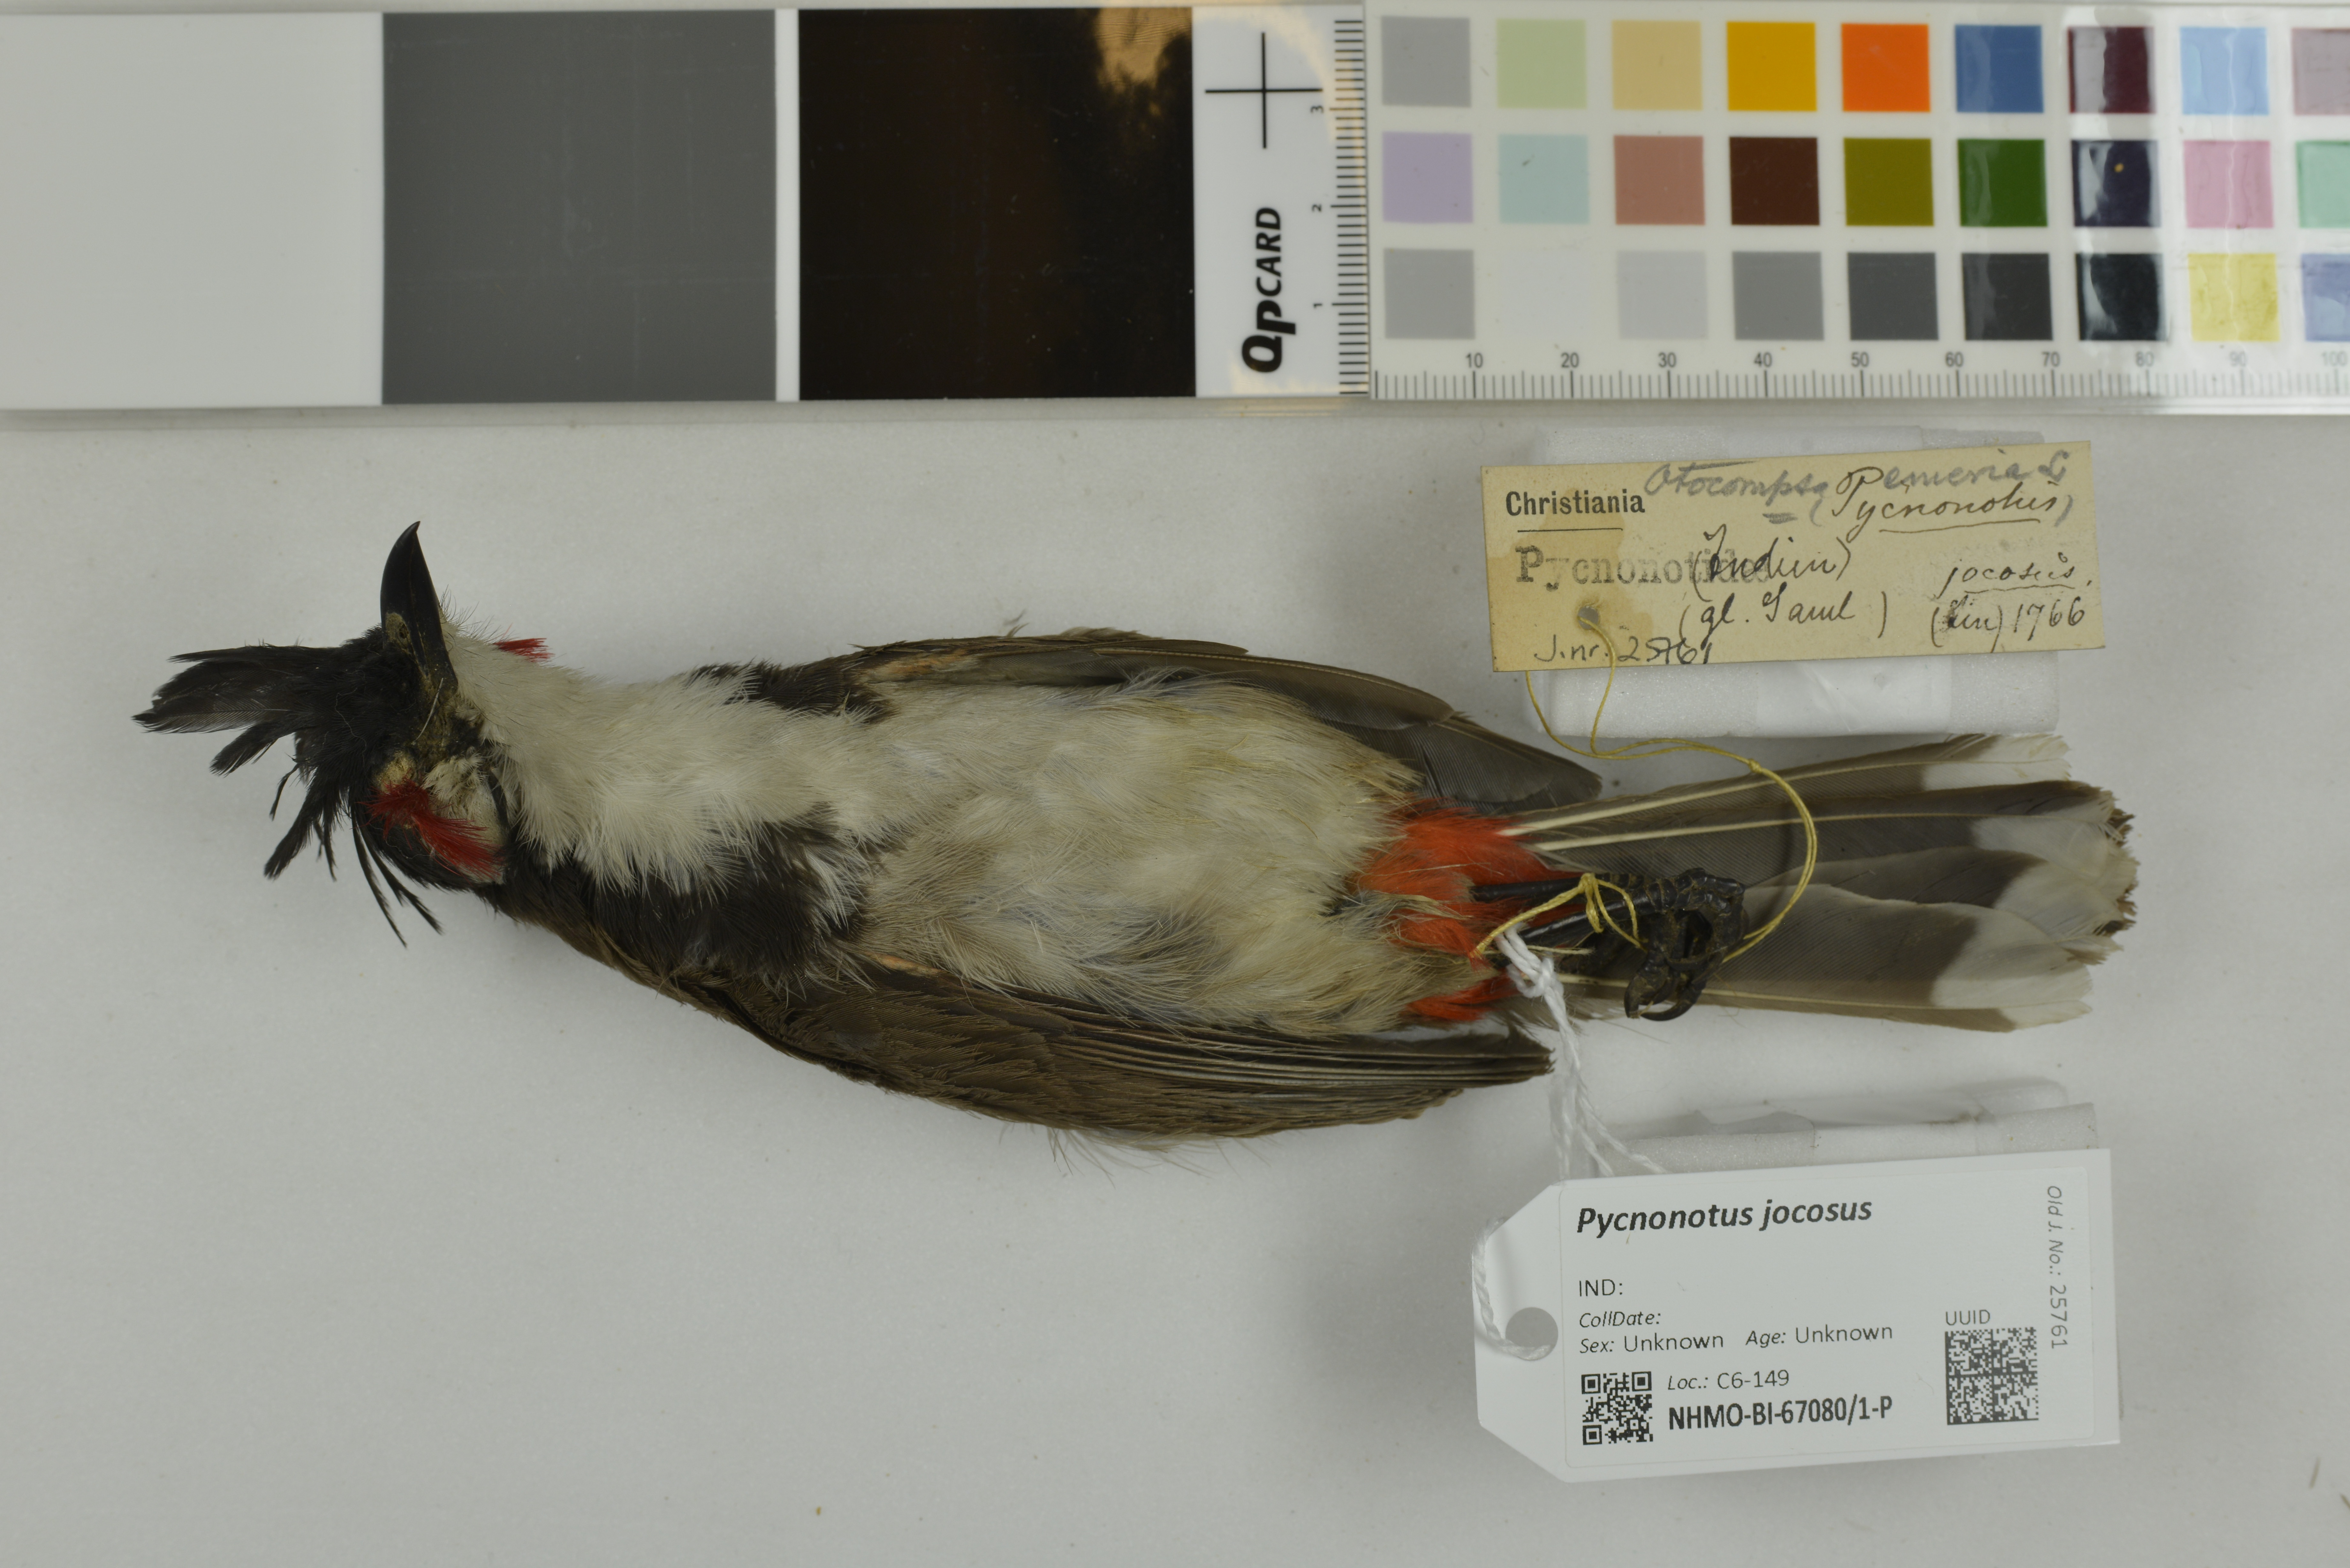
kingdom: Animalia
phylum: Chordata
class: Aves
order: Passeriformes
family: Pycnonotidae
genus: Pycnonotus
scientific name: Pycnonotus jocosus
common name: Red-whiskered bulbul
